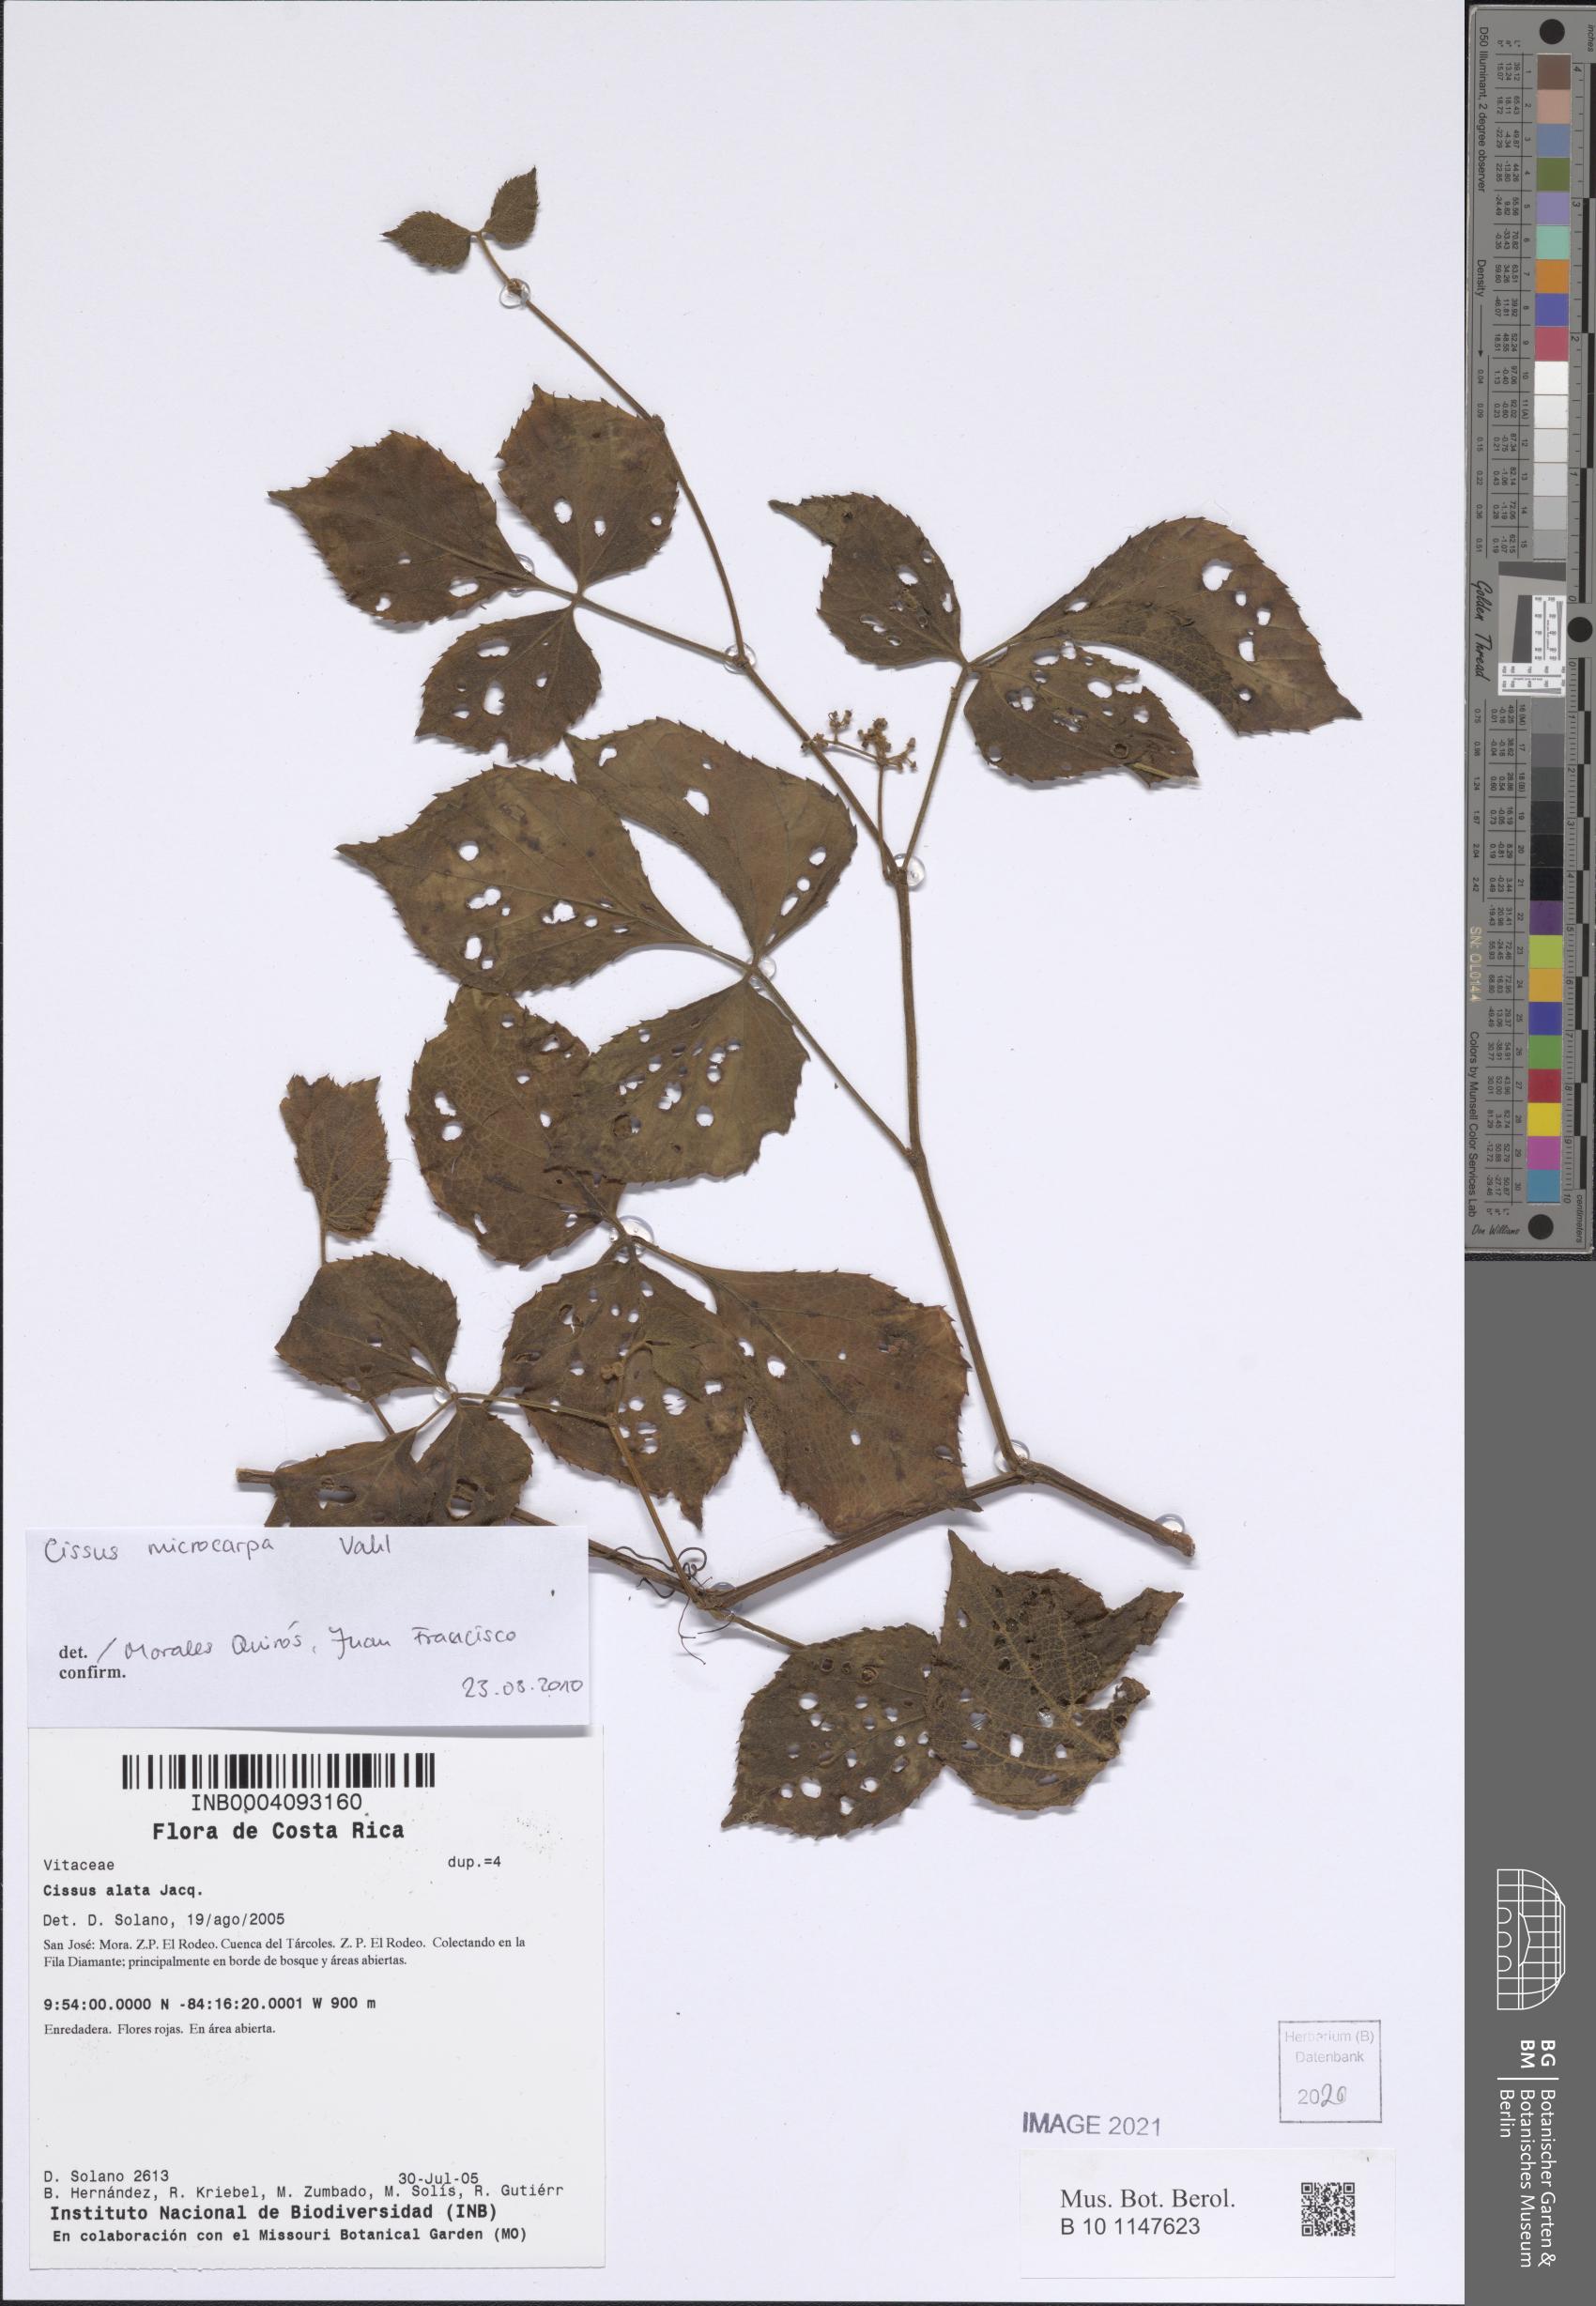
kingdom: Plantae
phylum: Tracheophyta
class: Magnoliopsida
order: Vitales
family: Vitaceae
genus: Cissus
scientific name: Cissus microcarpa
